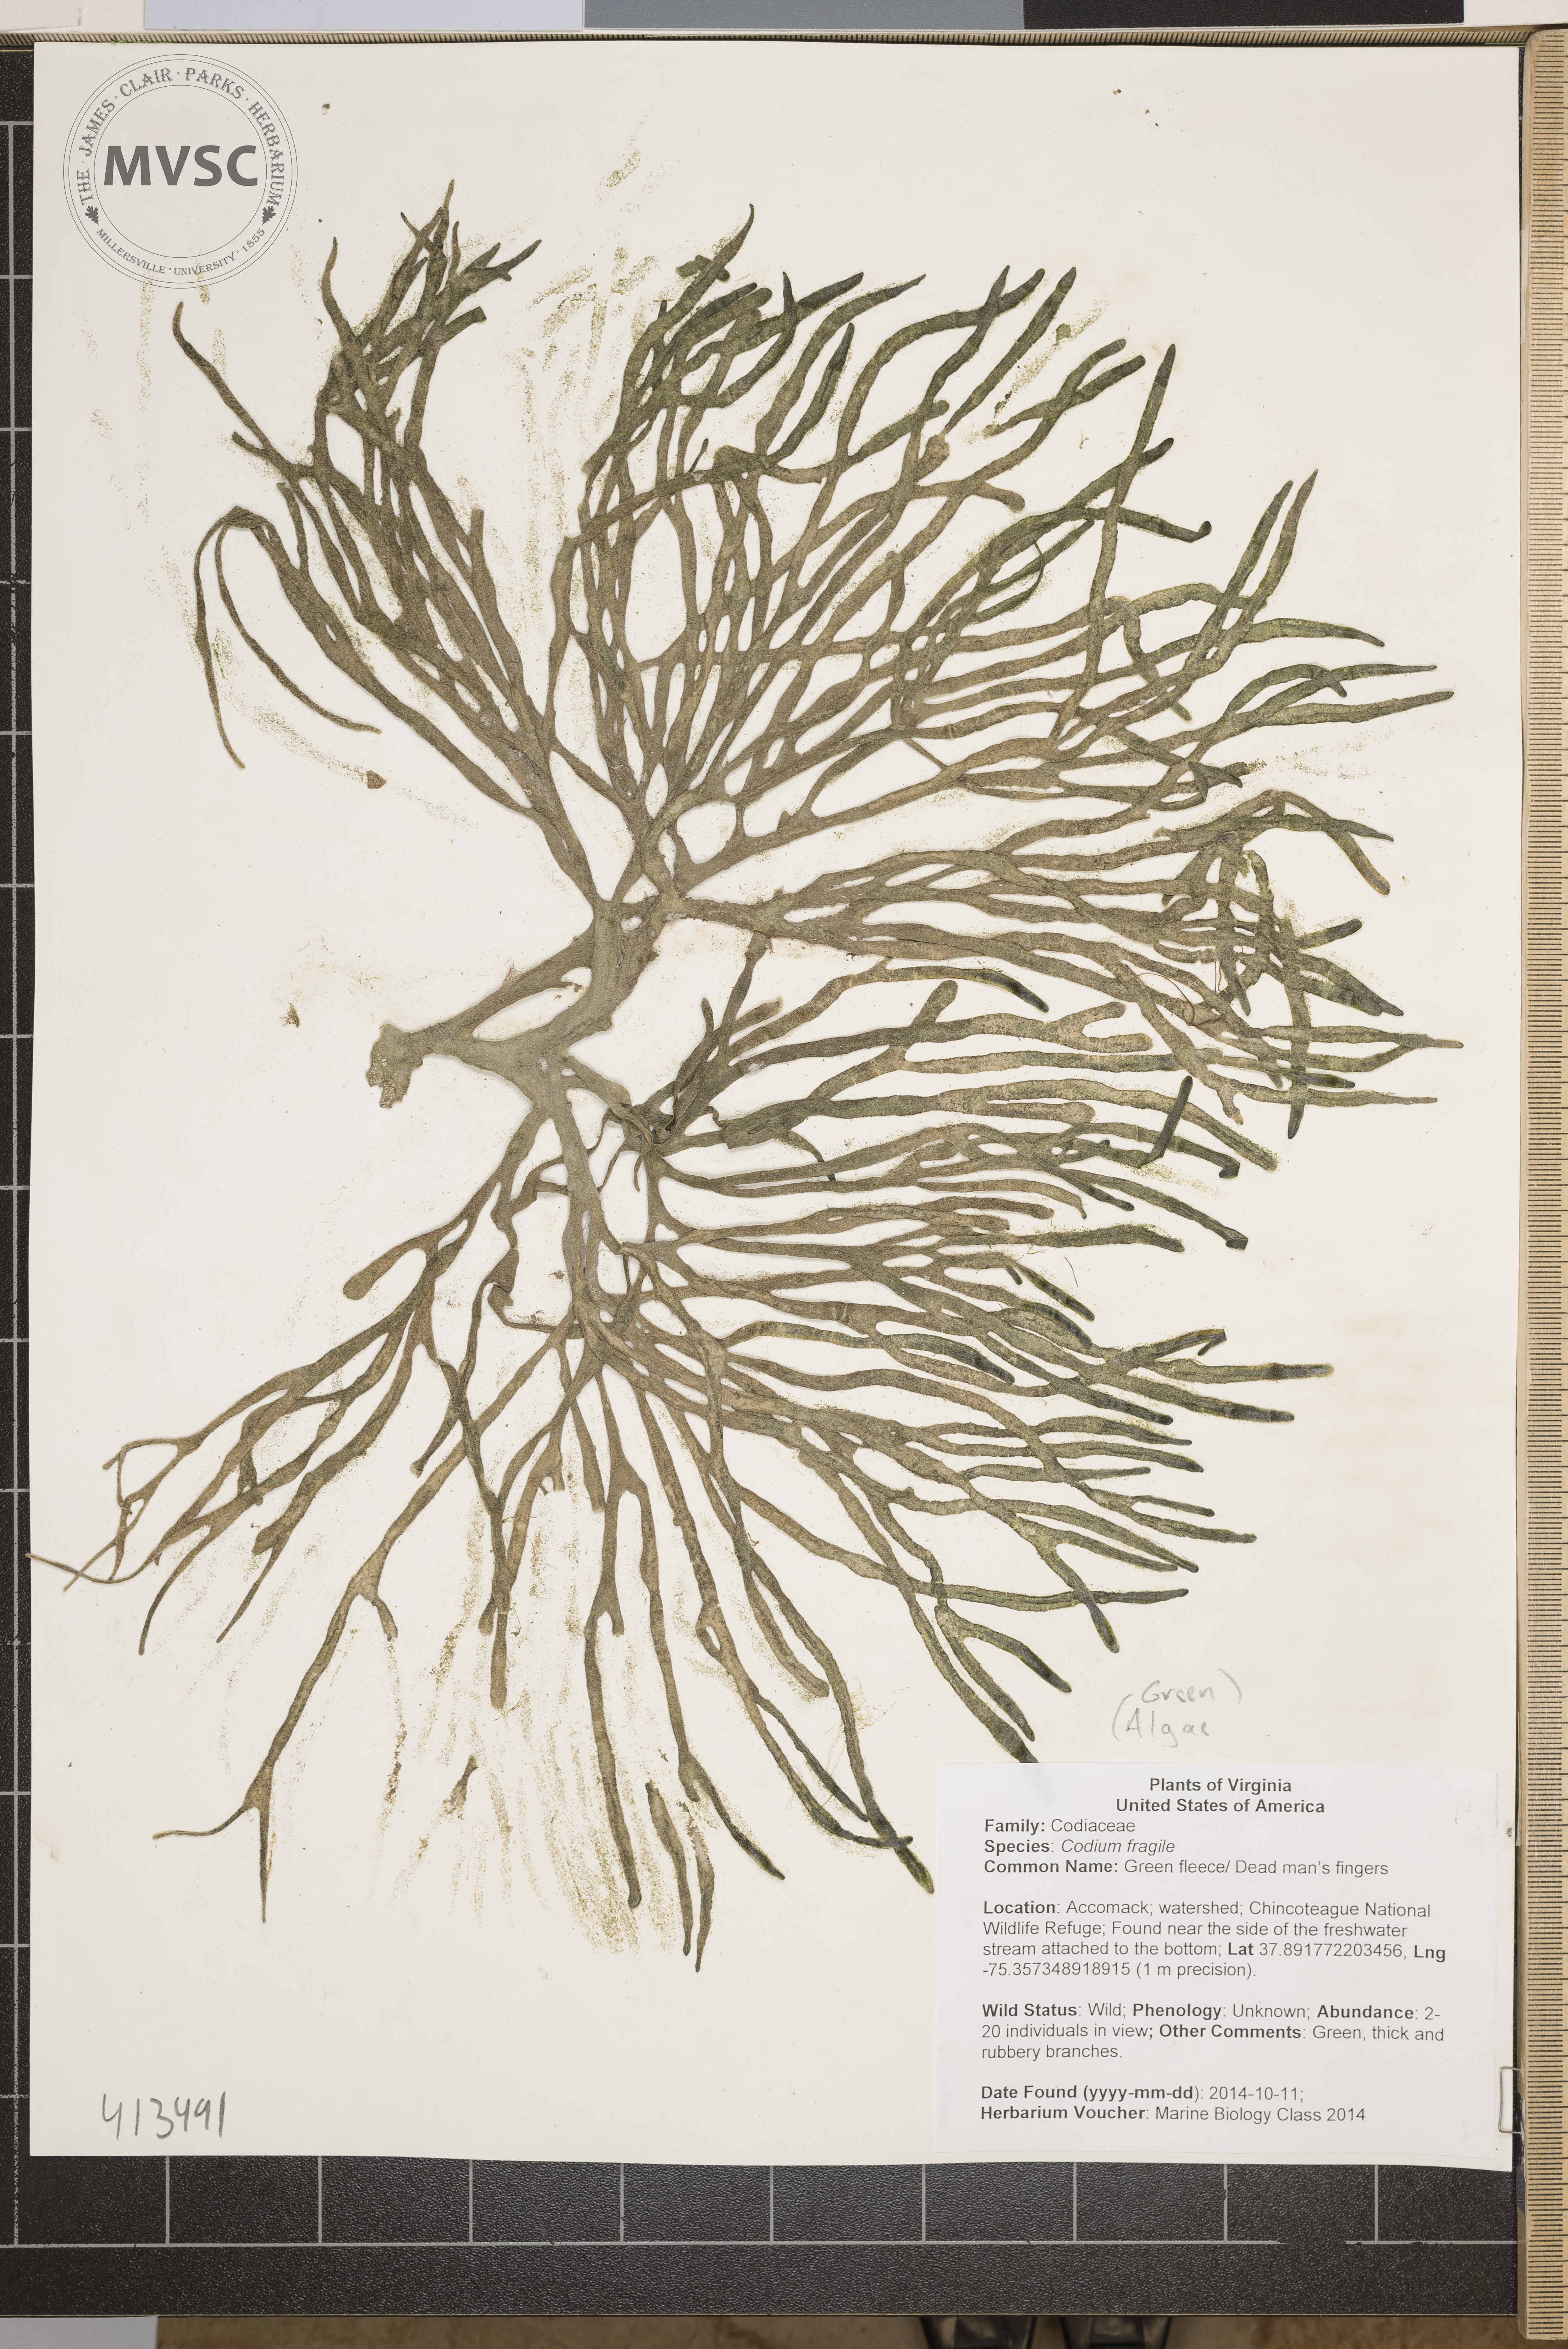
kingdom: Plantae
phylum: Chlorophyta
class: Ulvophyceae
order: Bryopsidales
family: Codiaceae
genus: Codium
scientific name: Codium fragile
